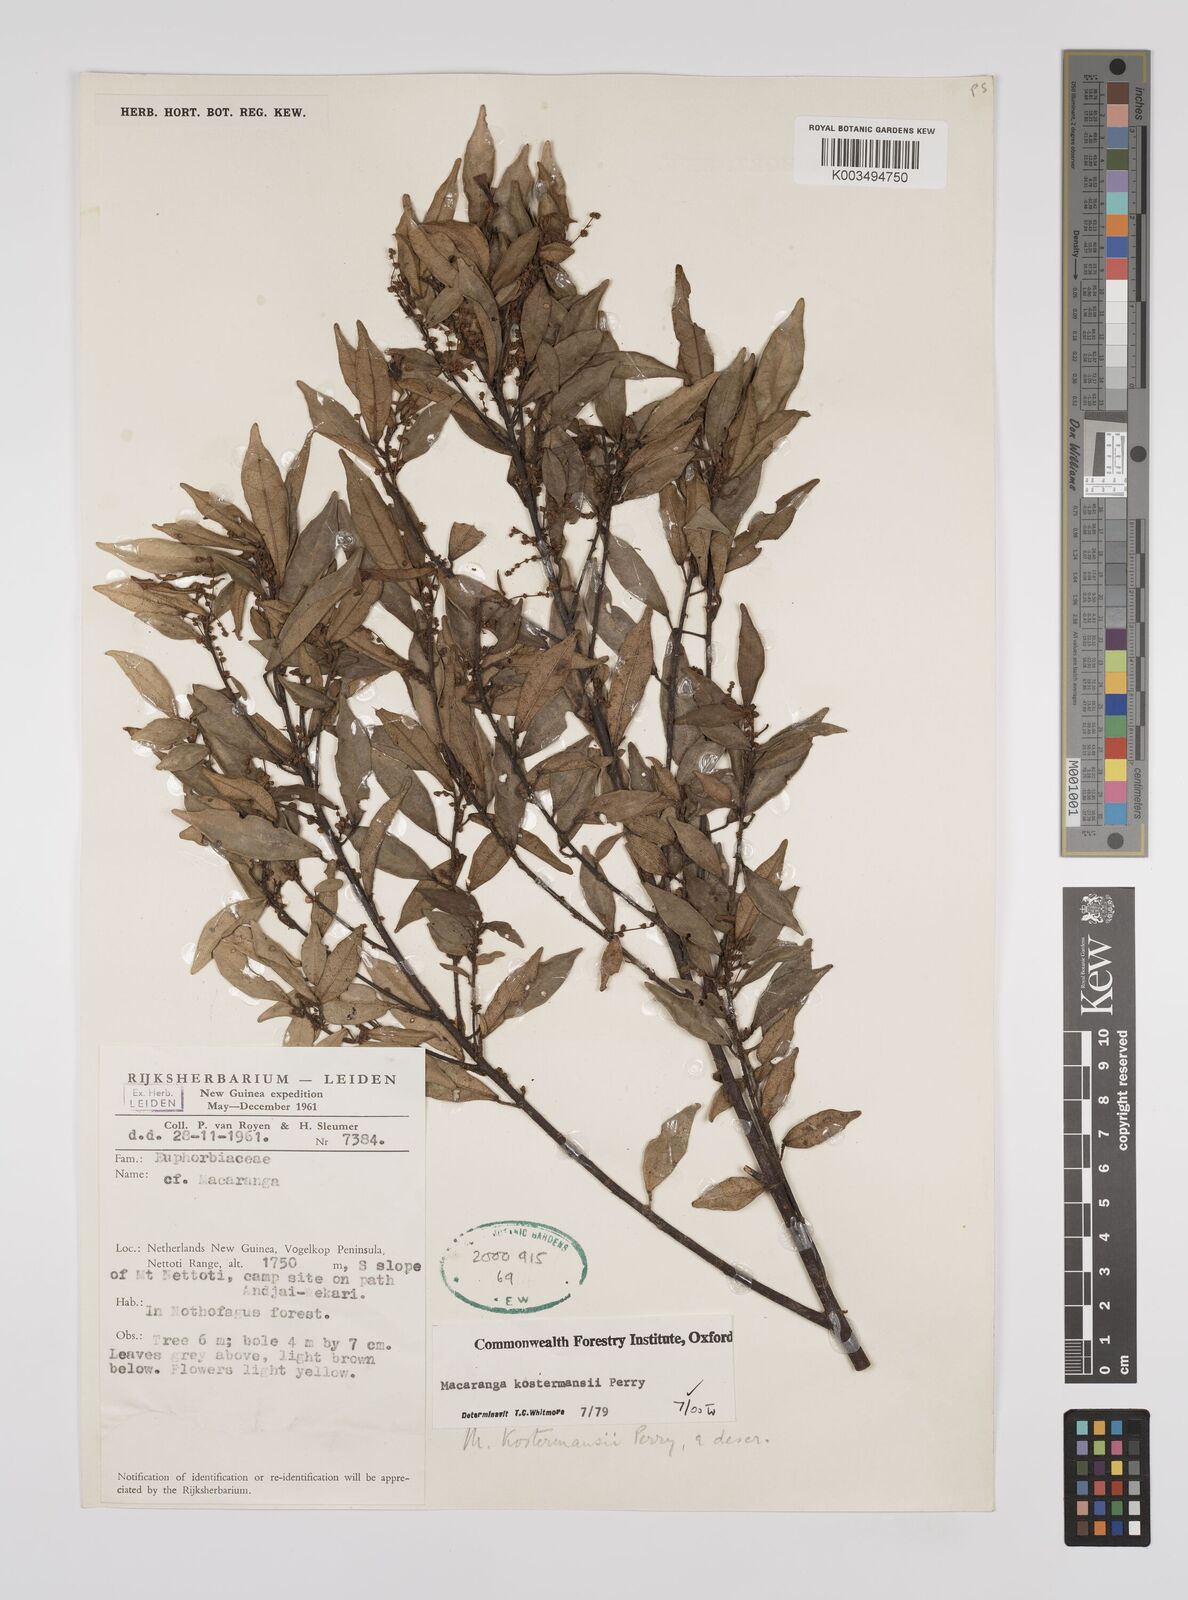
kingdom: Plantae
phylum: Tracheophyta
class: Magnoliopsida
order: Malpighiales
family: Euphorbiaceae
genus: Macaranga
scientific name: Macaranga kostermansii
